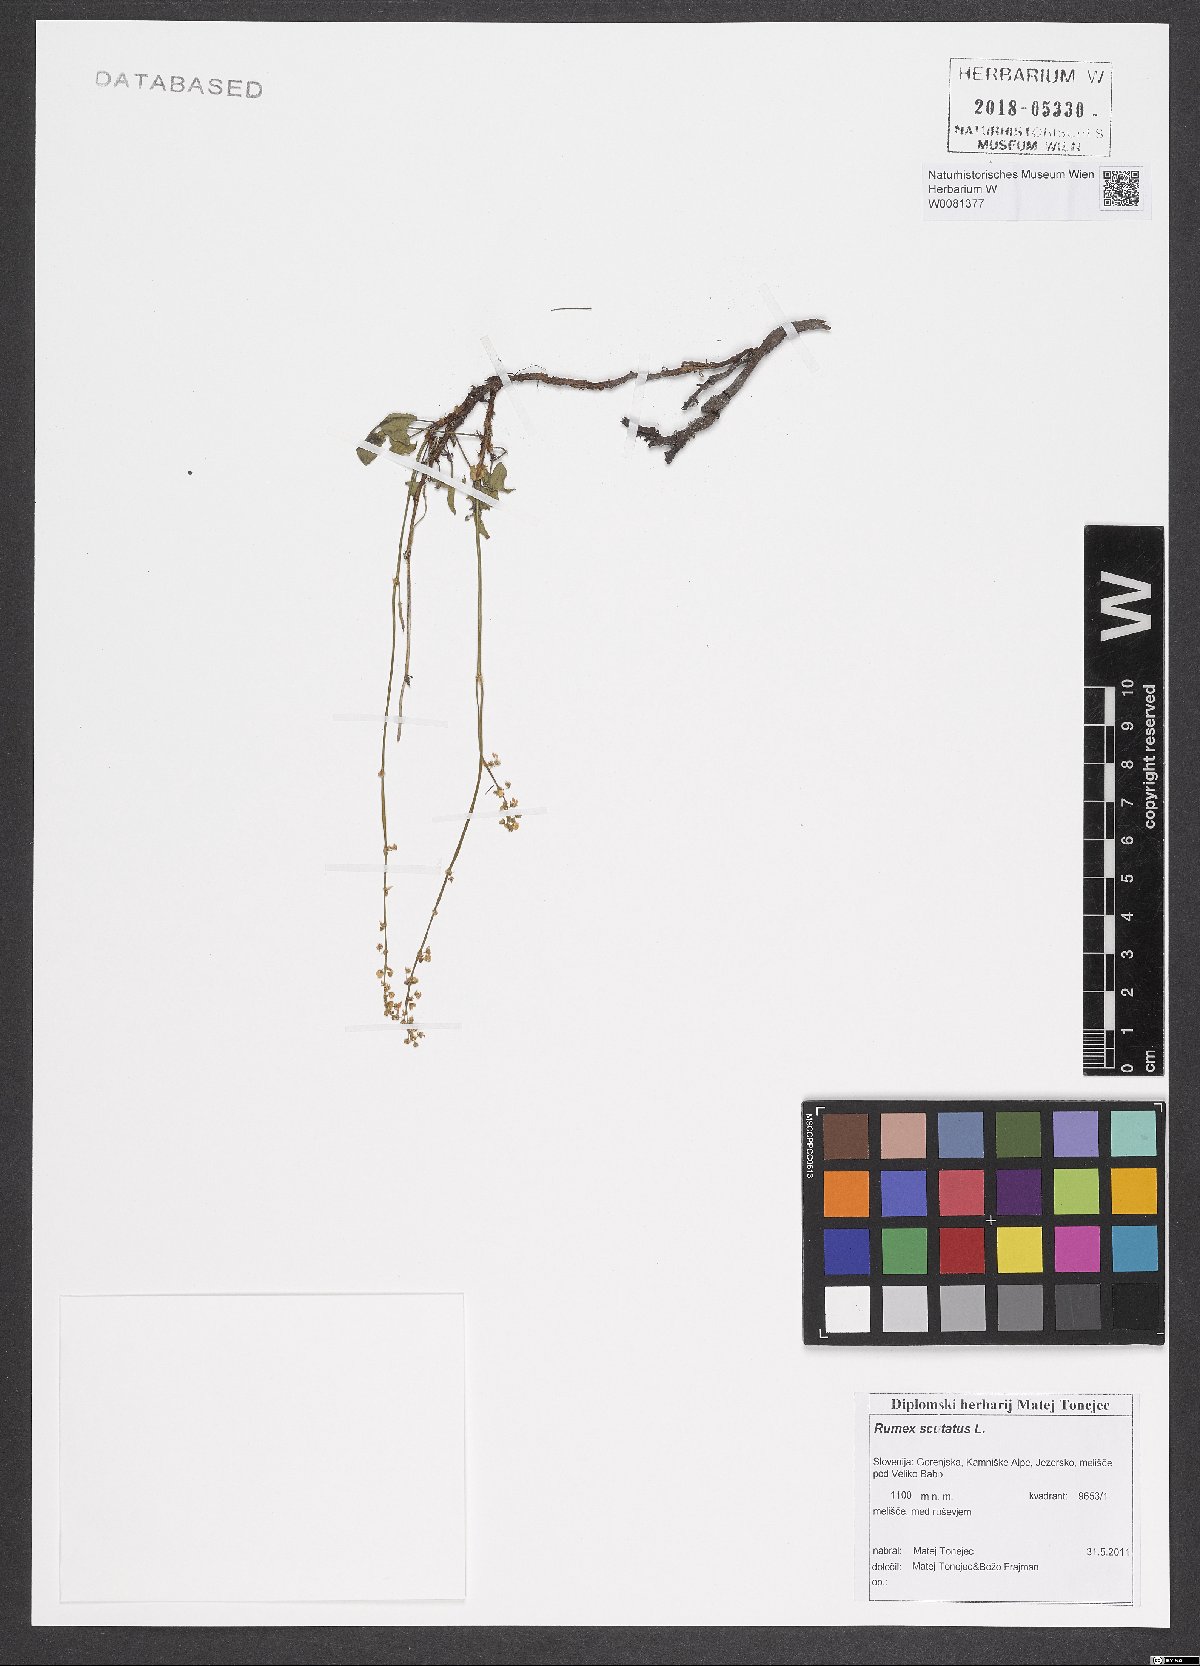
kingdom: Plantae
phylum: Tracheophyta
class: Magnoliopsida
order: Caryophyllales
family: Polygonaceae
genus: Rumex
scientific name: Rumex scutatus
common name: French sorrel
